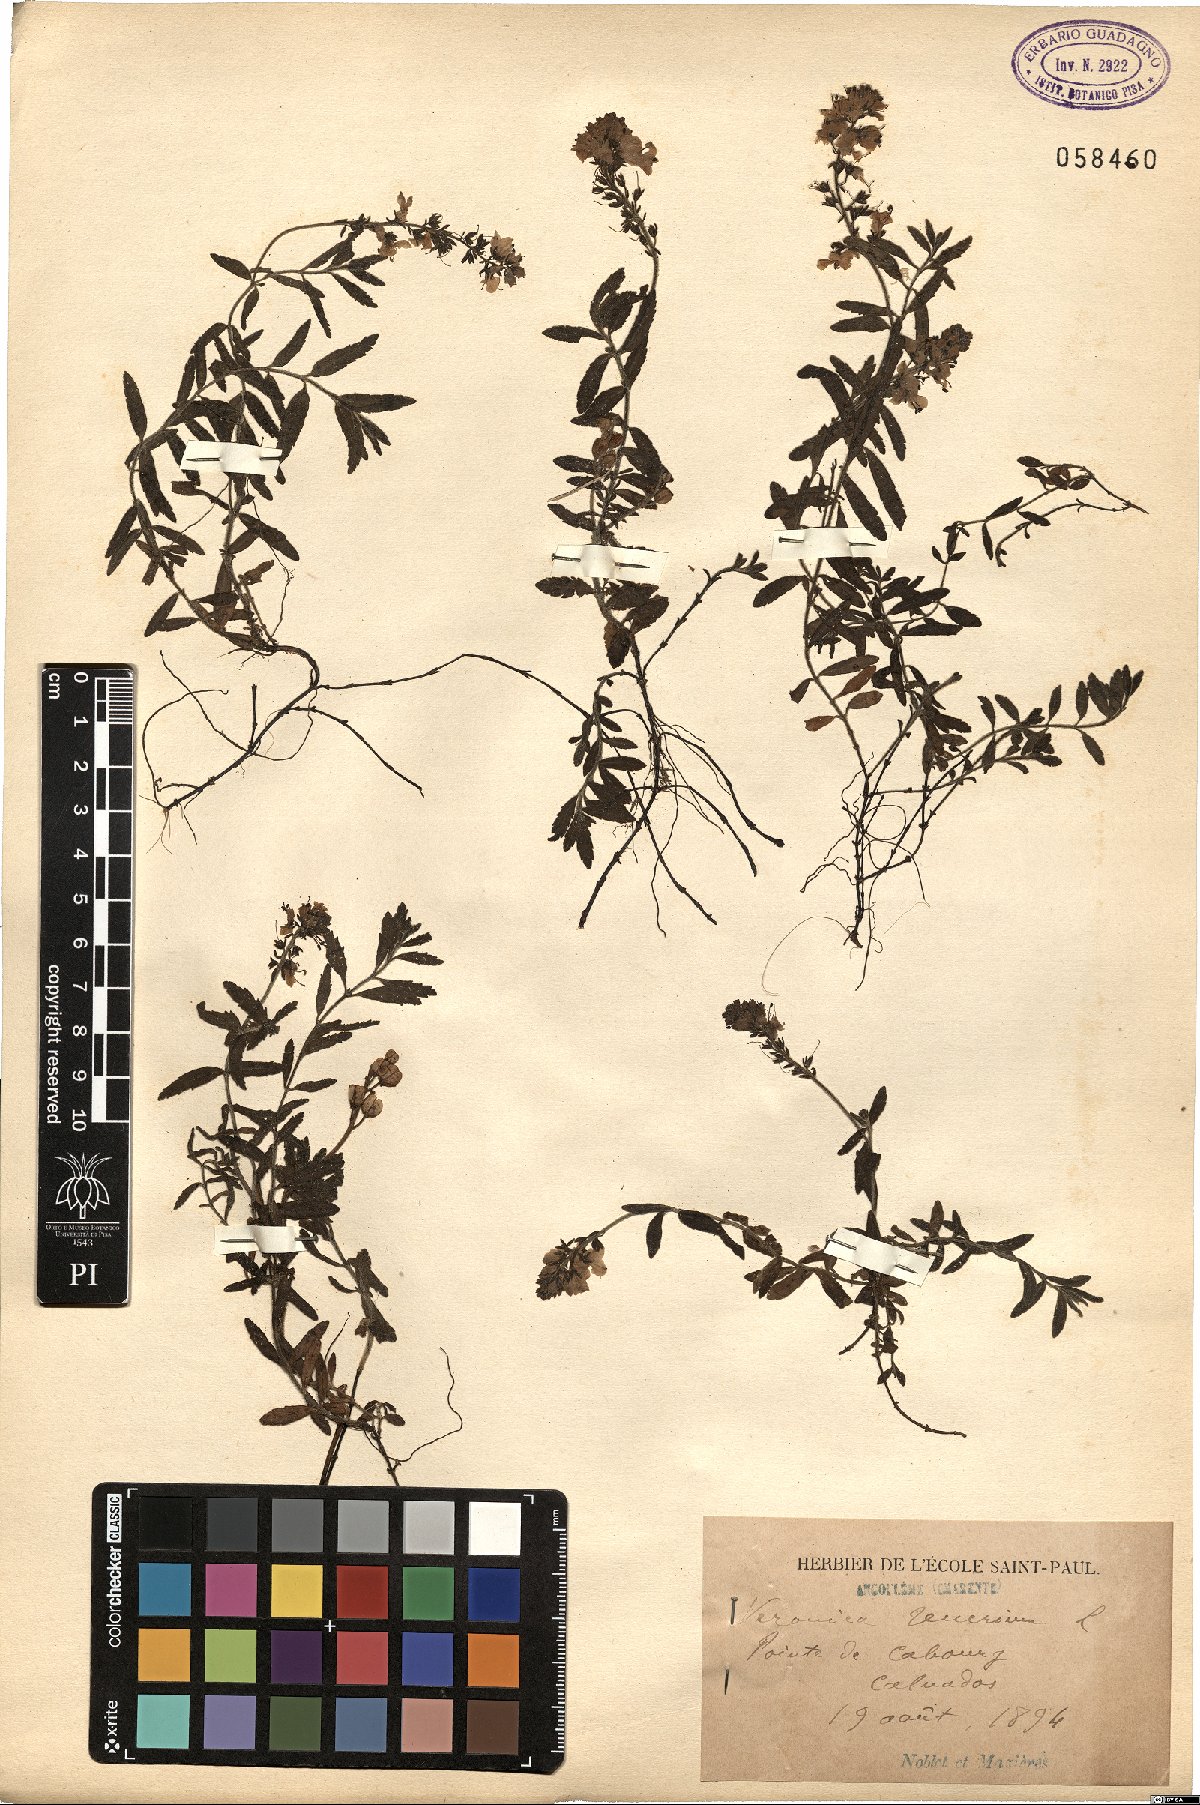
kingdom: Plantae
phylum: Tracheophyta
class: Magnoliopsida
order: Lamiales
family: Plantaginaceae
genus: Veronica
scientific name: Veronica teucrium
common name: Large speedwell
